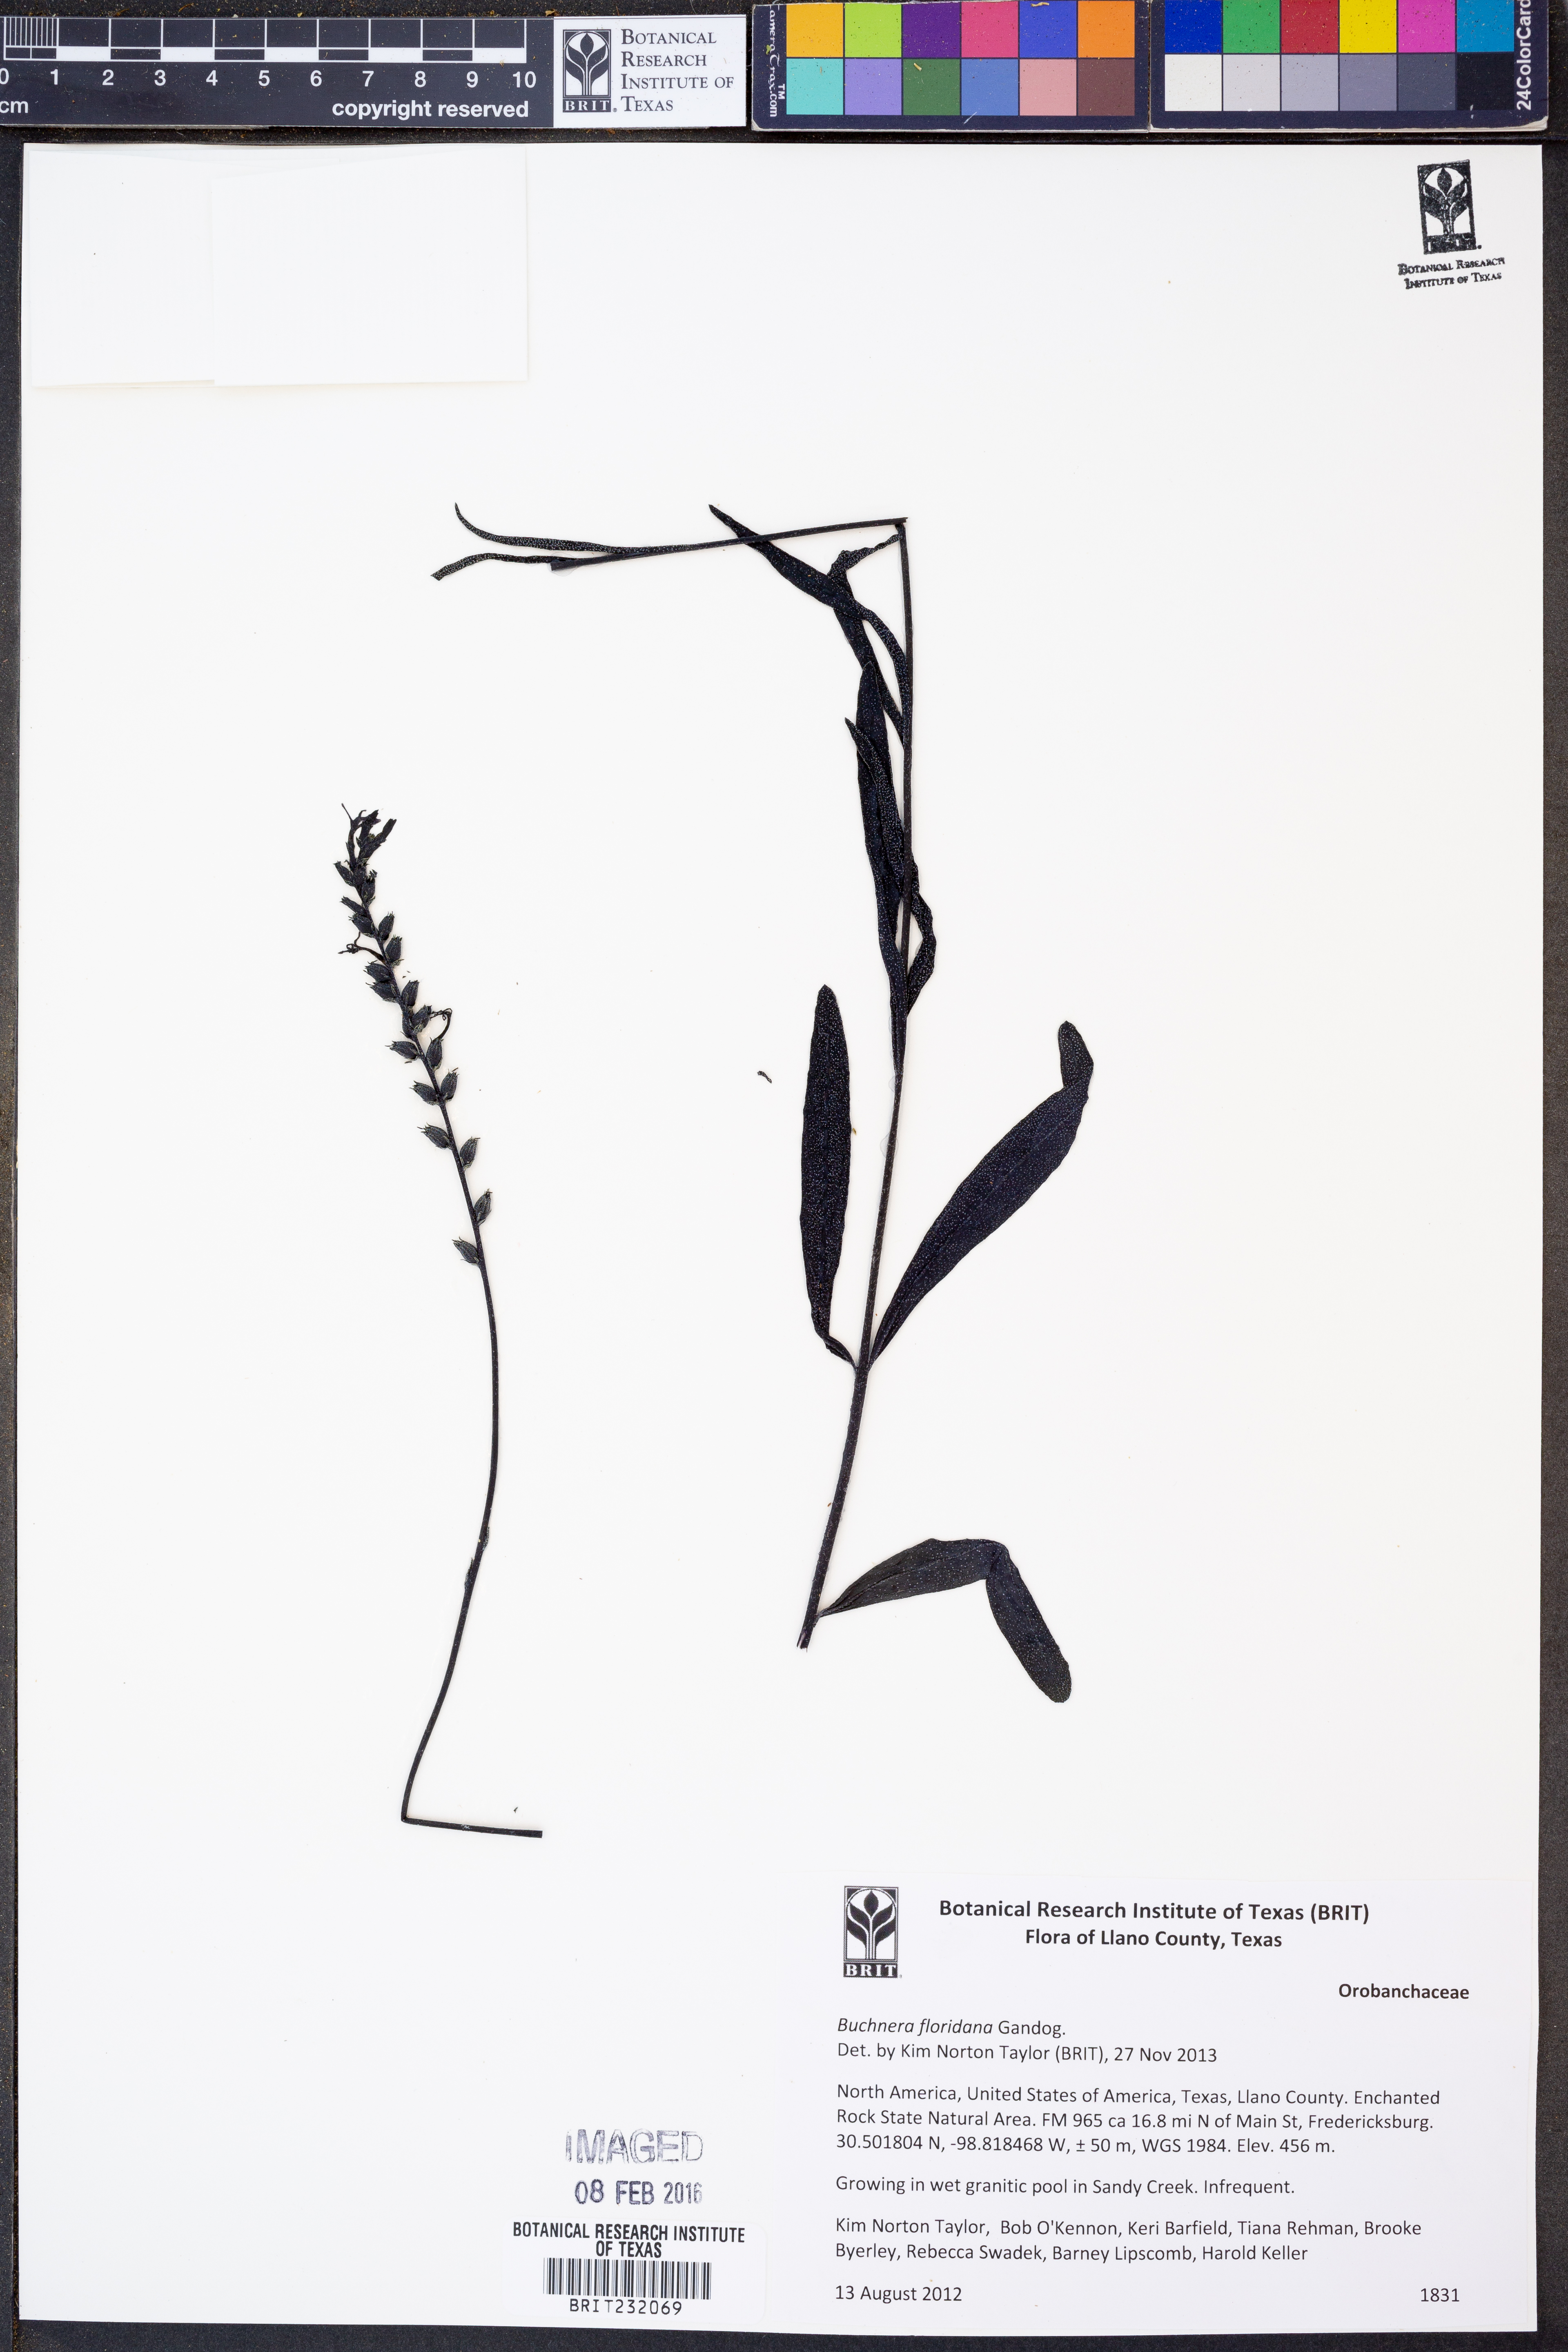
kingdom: Plantae
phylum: Tracheophyta
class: Magnoliopsida
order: Lamiales
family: Orobanchaceae
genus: Buchnera
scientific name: Buchnera floridana
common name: Florida bluehearts
